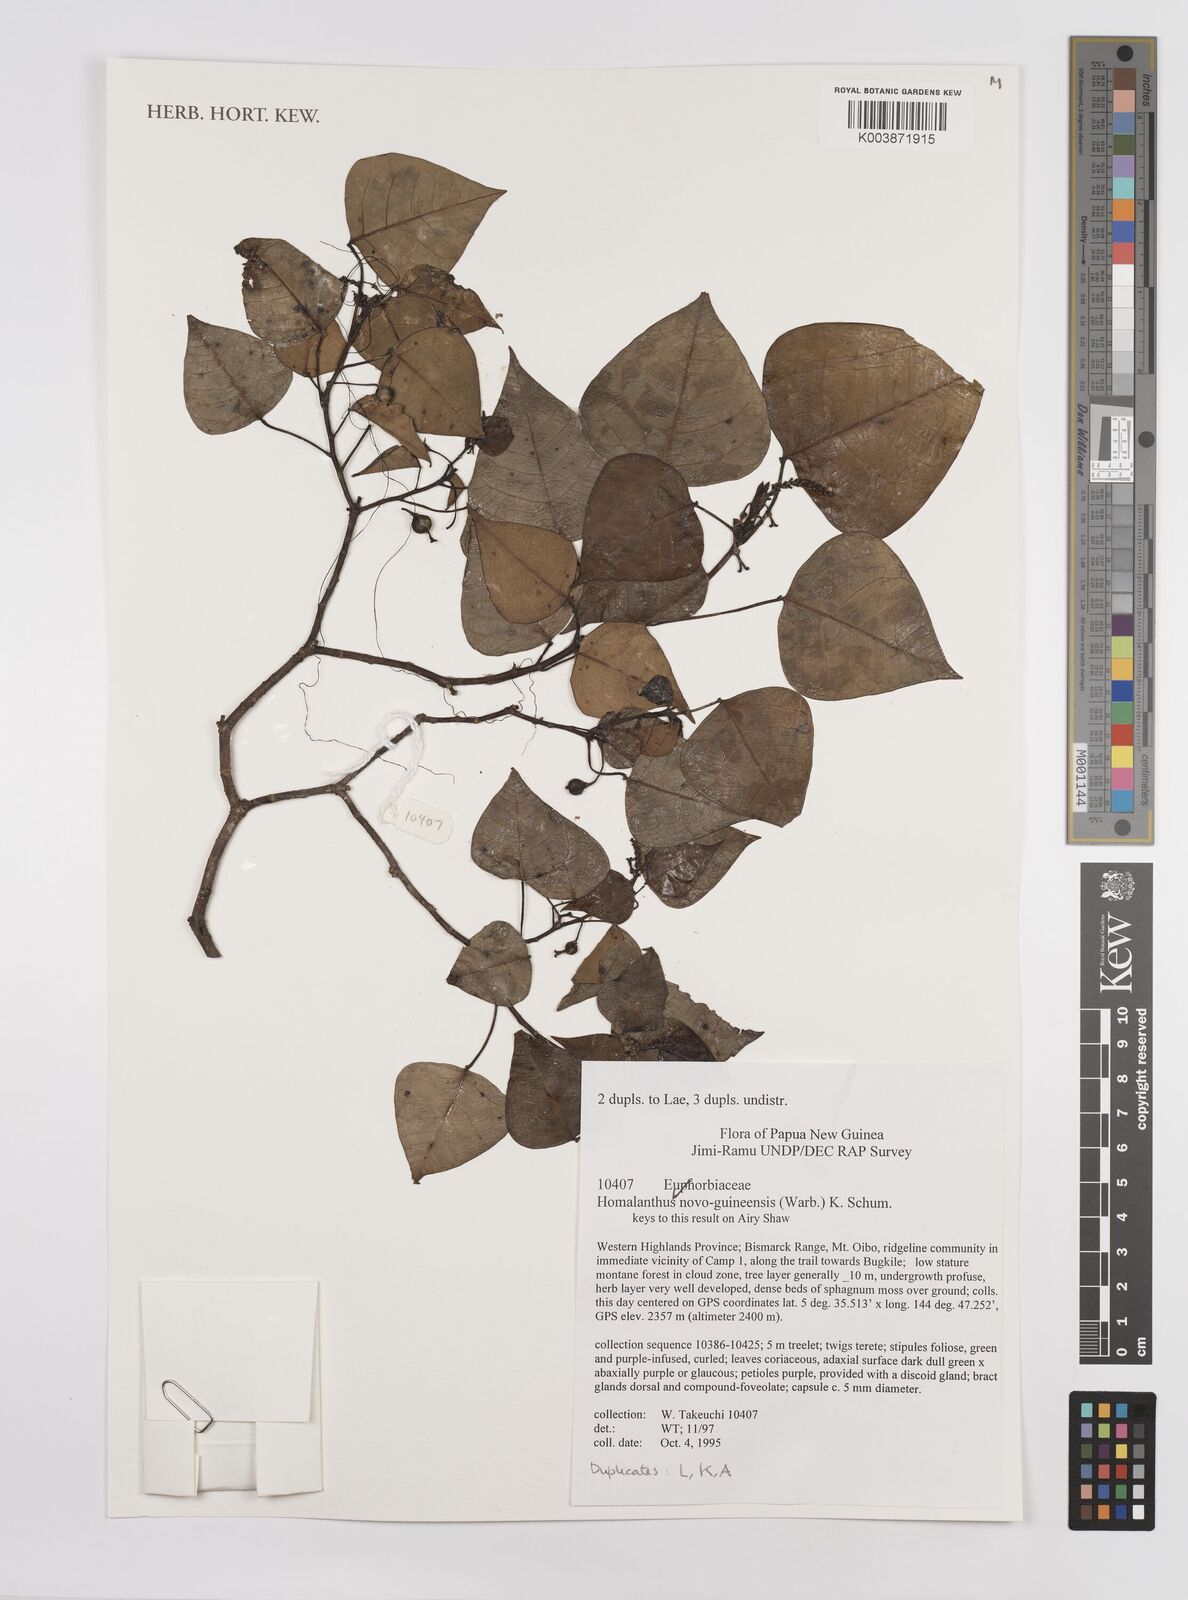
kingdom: Plantae
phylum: Tracheophyta
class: Magnoliopsida
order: Malpighiales
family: Euphorbiaceae
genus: Homalanthus
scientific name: Homalanthus novoguineensis
